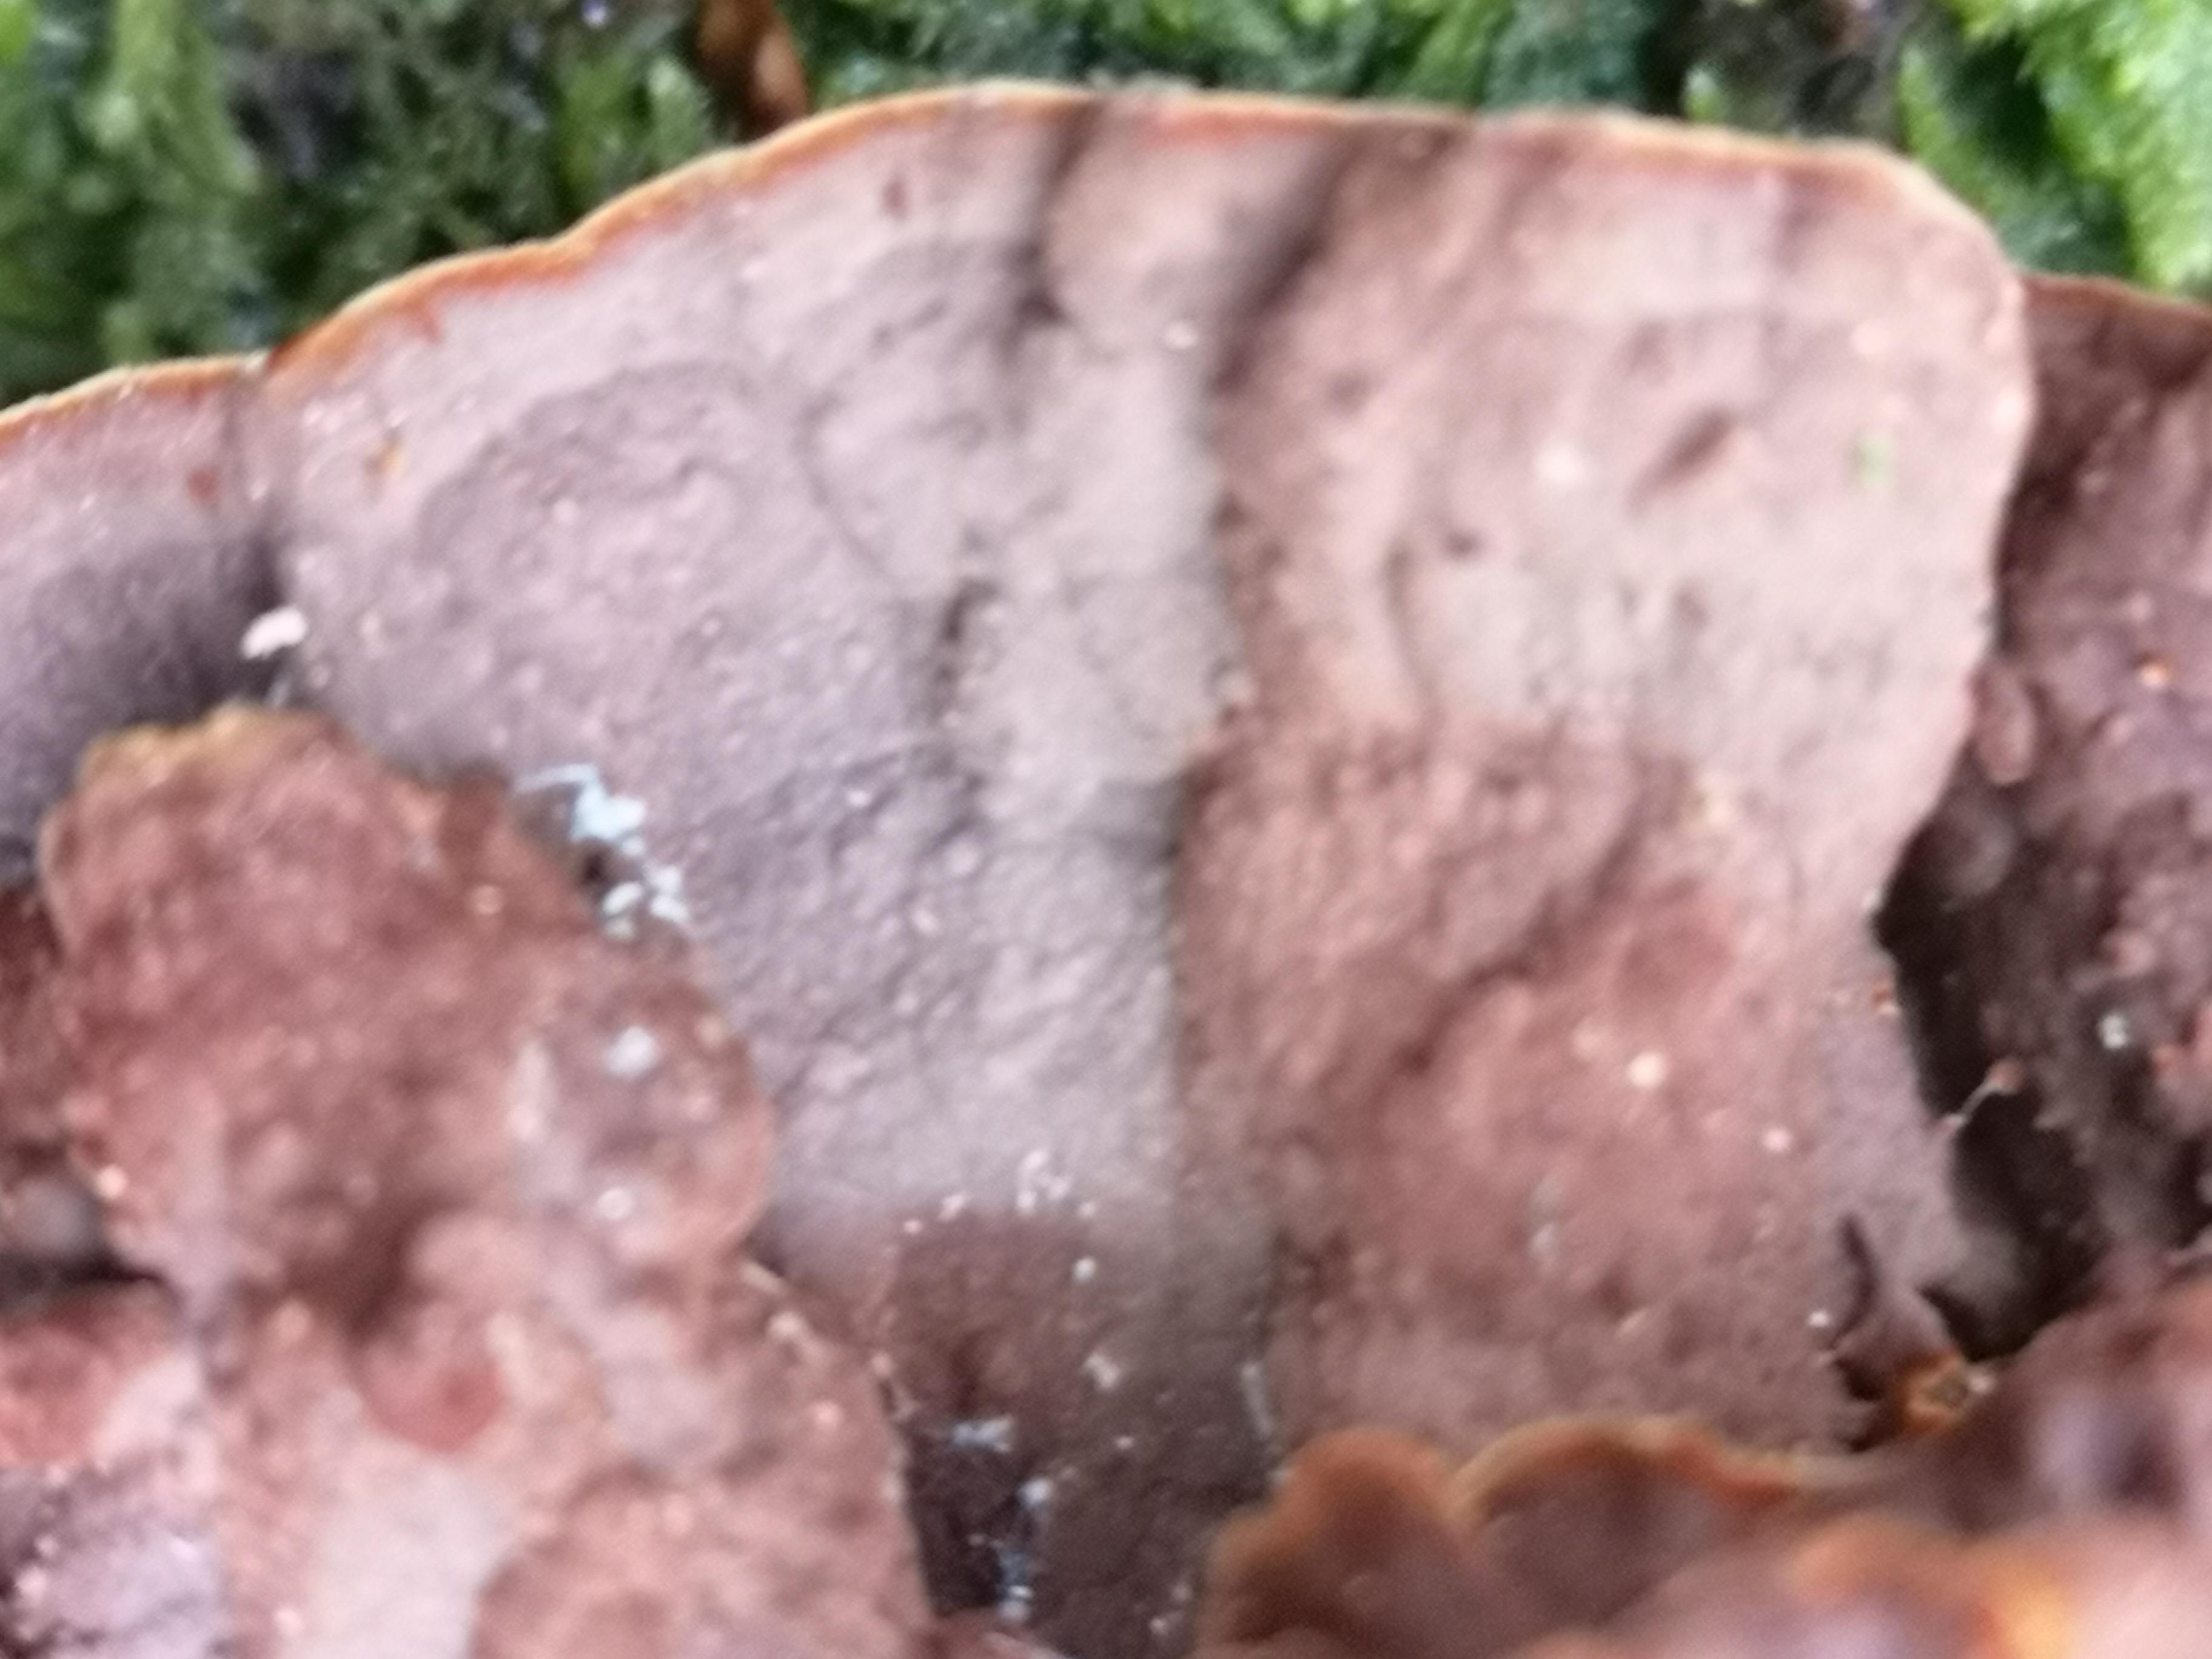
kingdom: Fungi
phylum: Basidiomycota
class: Agaricomycetes
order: Hymenochaetales
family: Hymenochaetaceae
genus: Hymenochaete
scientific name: Hymenochaete rubiginosa
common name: stiv ruslædersvamp
